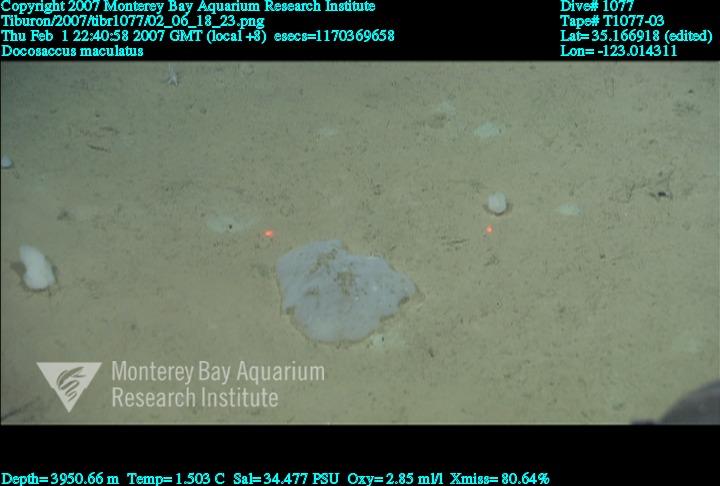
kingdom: Animalia
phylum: Porifera
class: Hexactinellida
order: Lyssacinosida
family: Euplectellidae
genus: Docosaccus
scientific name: Docosaccus maculatus
